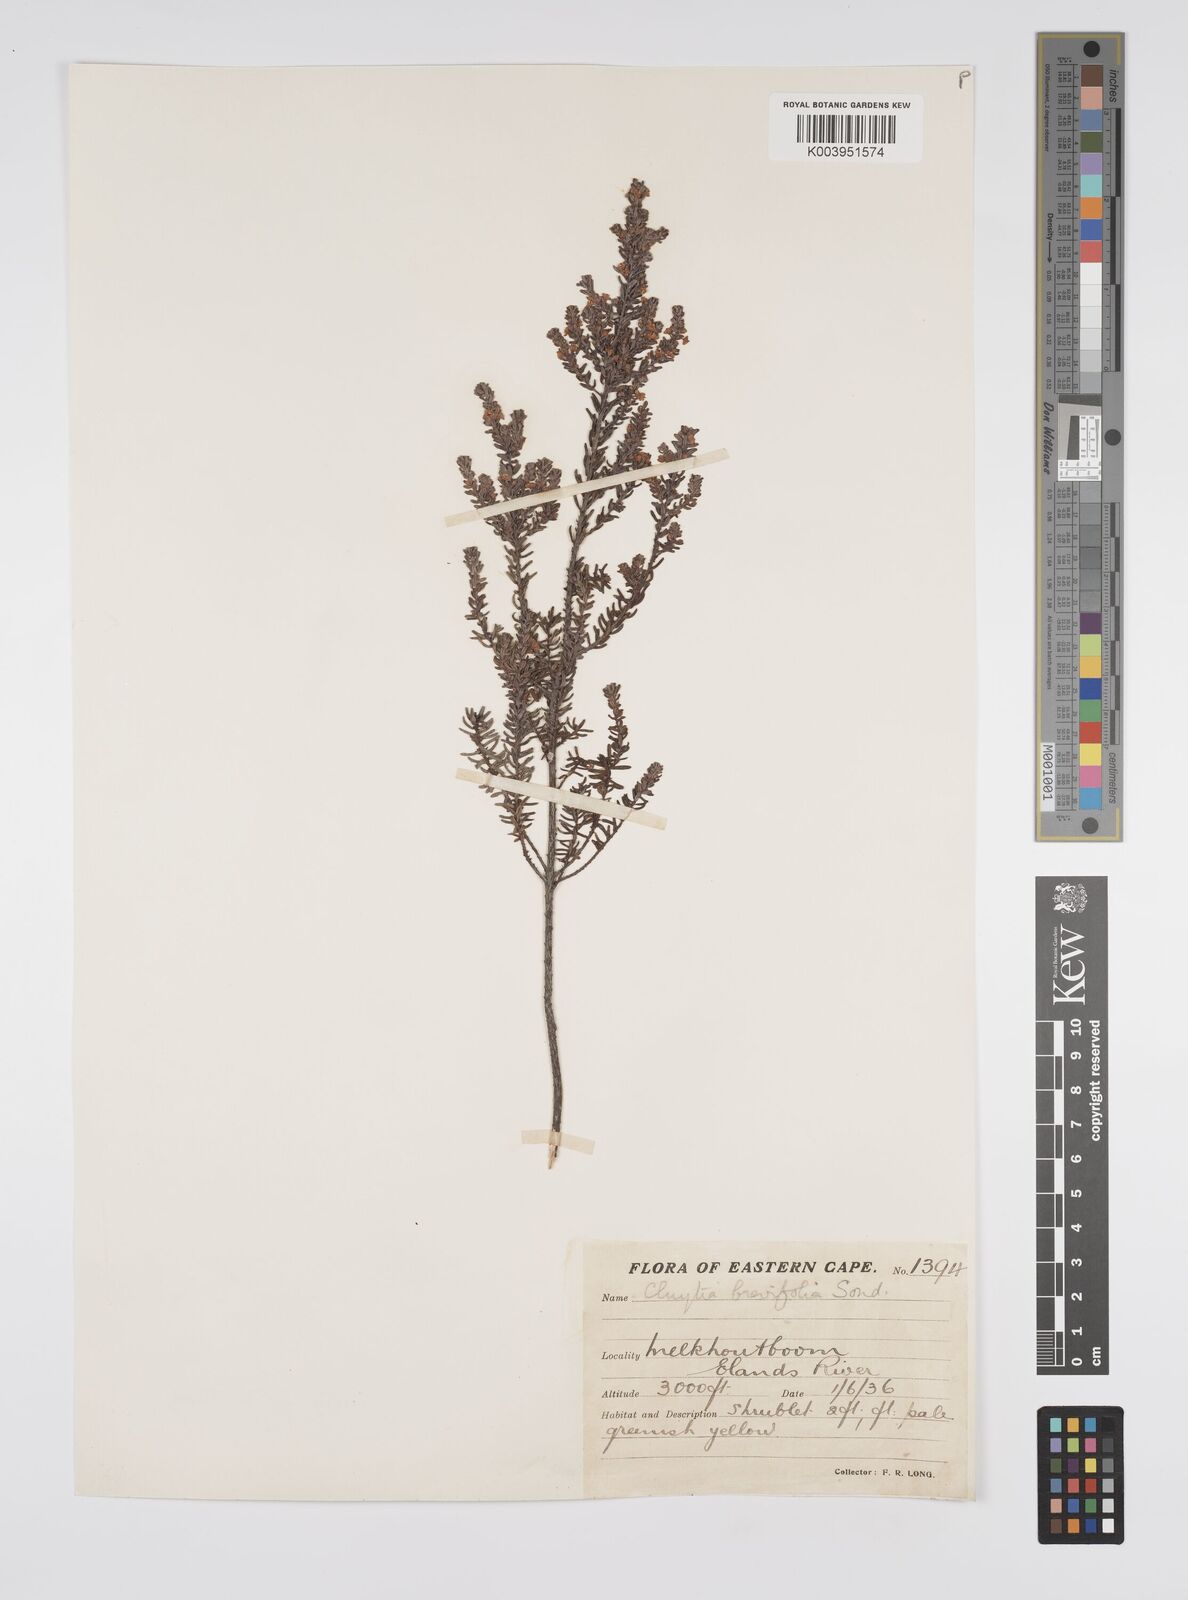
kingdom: Plantae
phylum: Tracheophyta
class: Magnoliopsida
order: Malpighiales
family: Peraceae
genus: Clutia
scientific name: Clutia brevifolia
